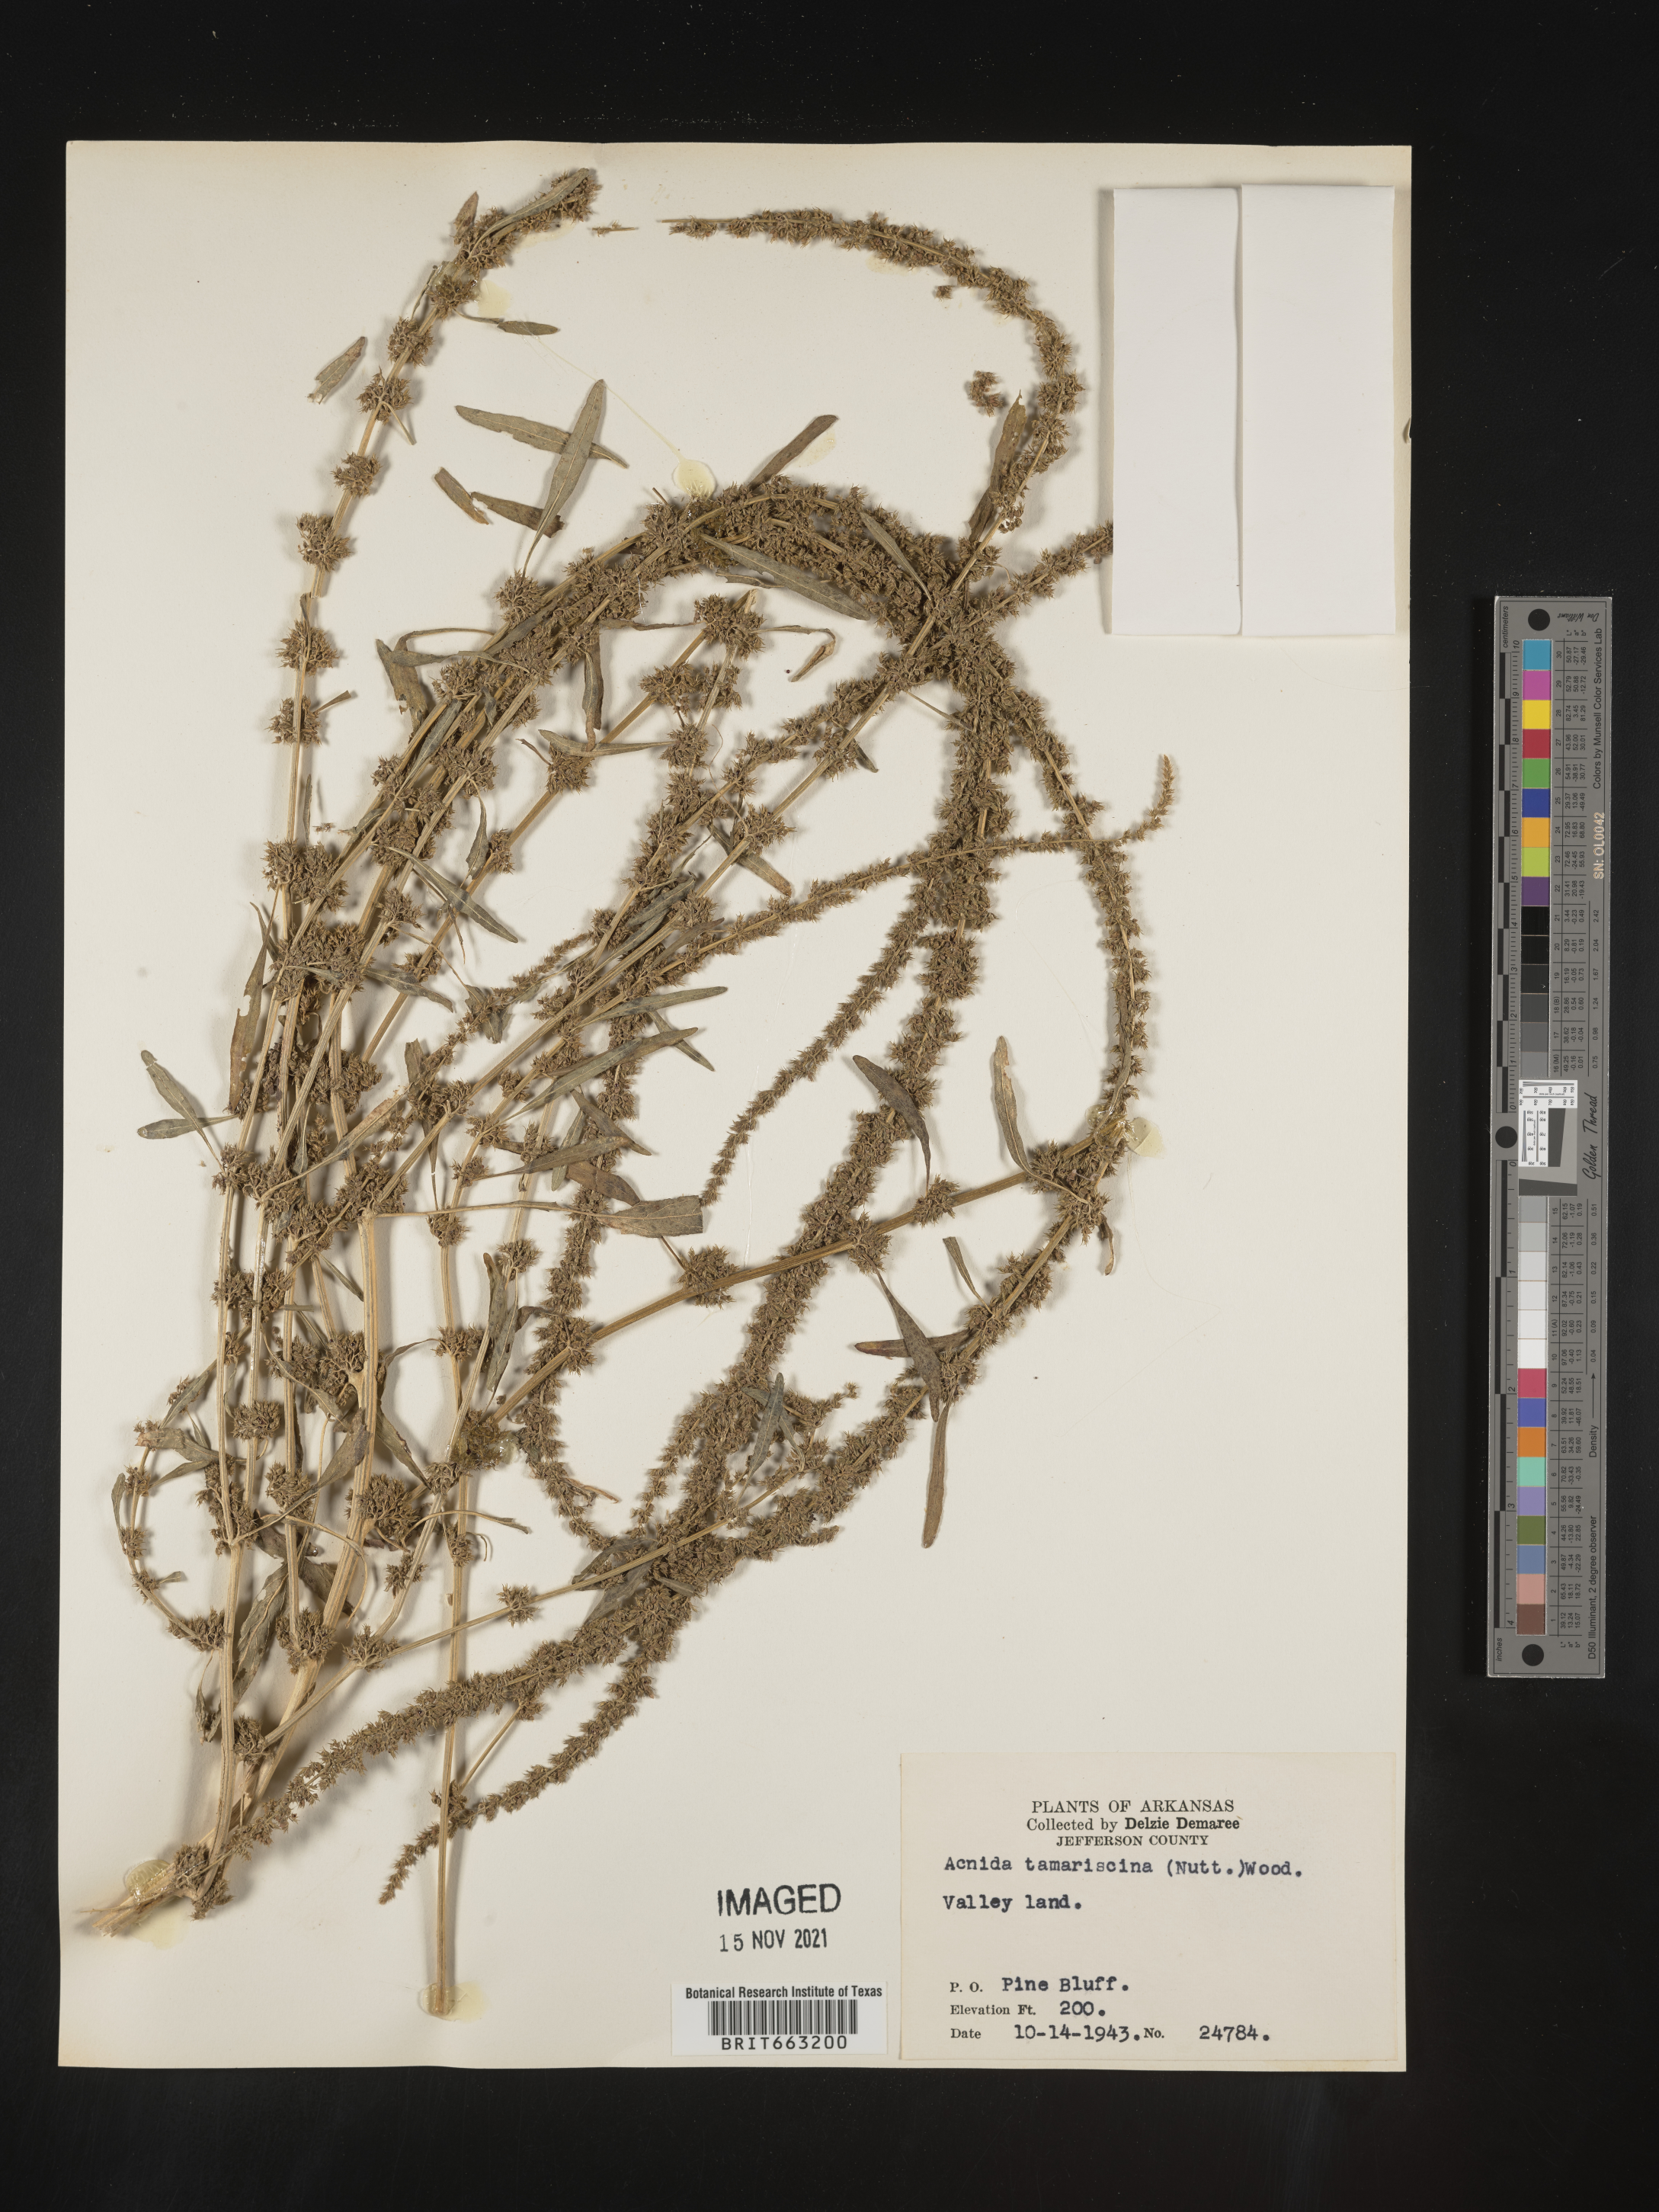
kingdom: Plantae
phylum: Tracheophyta
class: Magnoliopsida
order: Caryophyllales
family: Amaranthaceae
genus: Amaranthus
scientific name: Amaranthus tamariscinus
